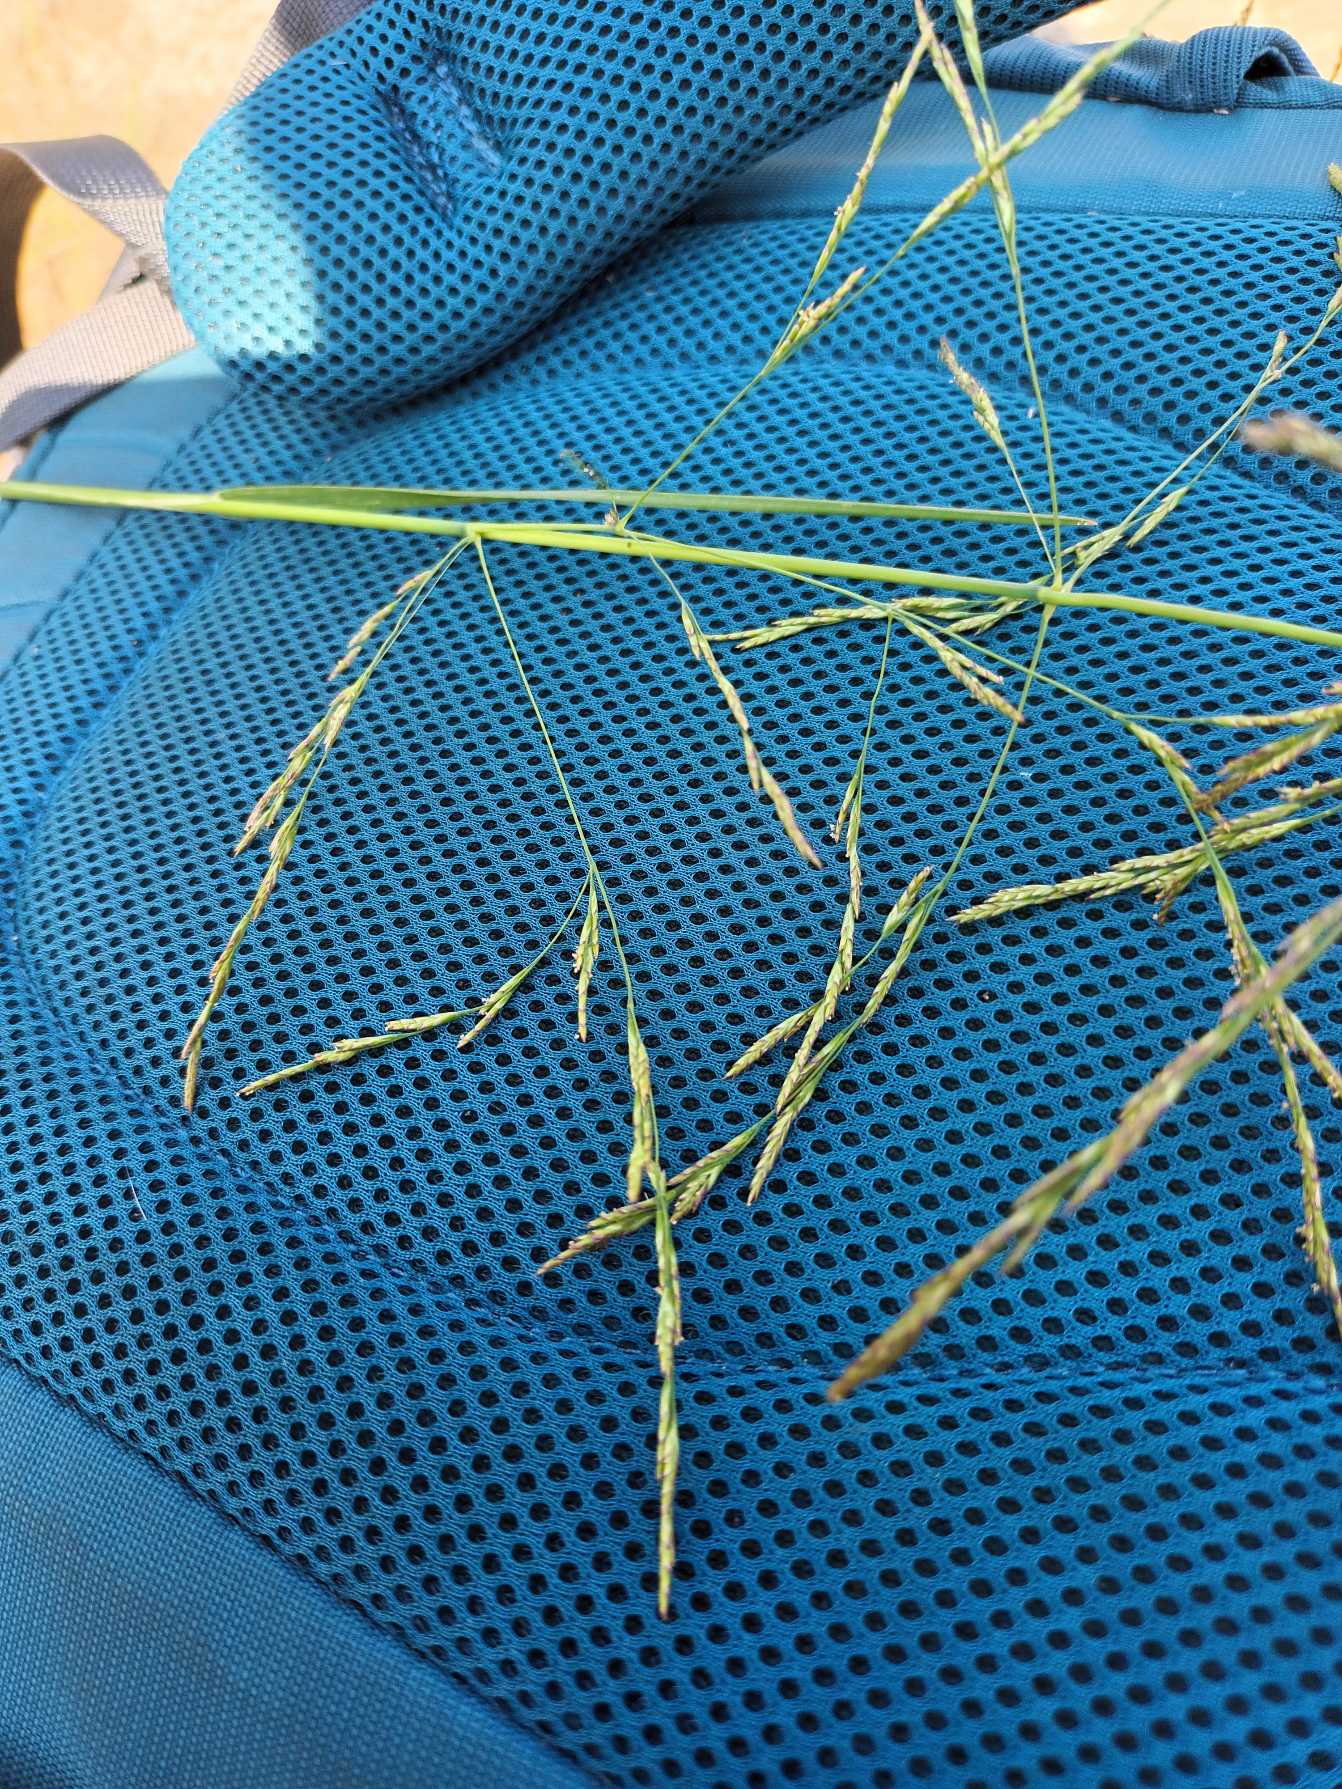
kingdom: Plantae
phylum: Tracheophyta
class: Liliopsida
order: Poales
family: Poaceae
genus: Puccinellia
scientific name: Puccinellia distans
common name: Slap annelgræs
